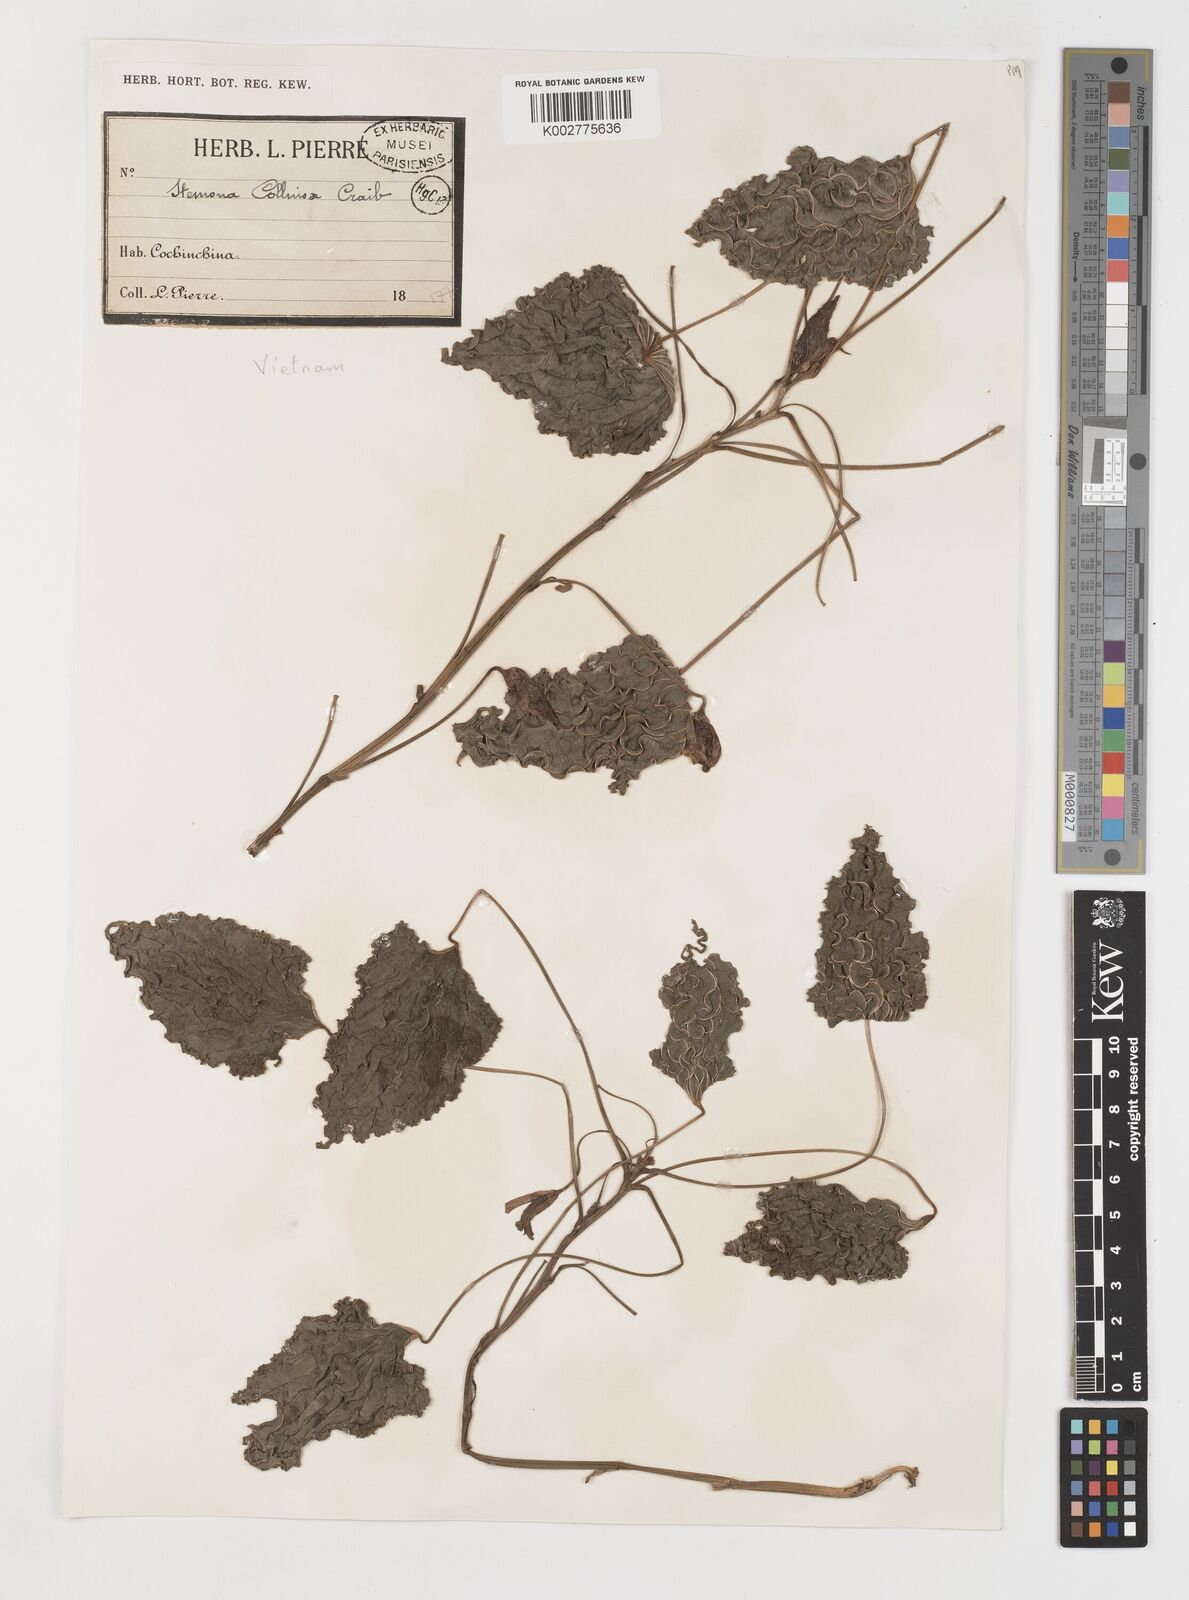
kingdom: Plantae
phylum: Tracheophyta
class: Liliopsida
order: Pandanales
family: Stemonaceae
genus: Stemona
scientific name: Stemona collinsiae
